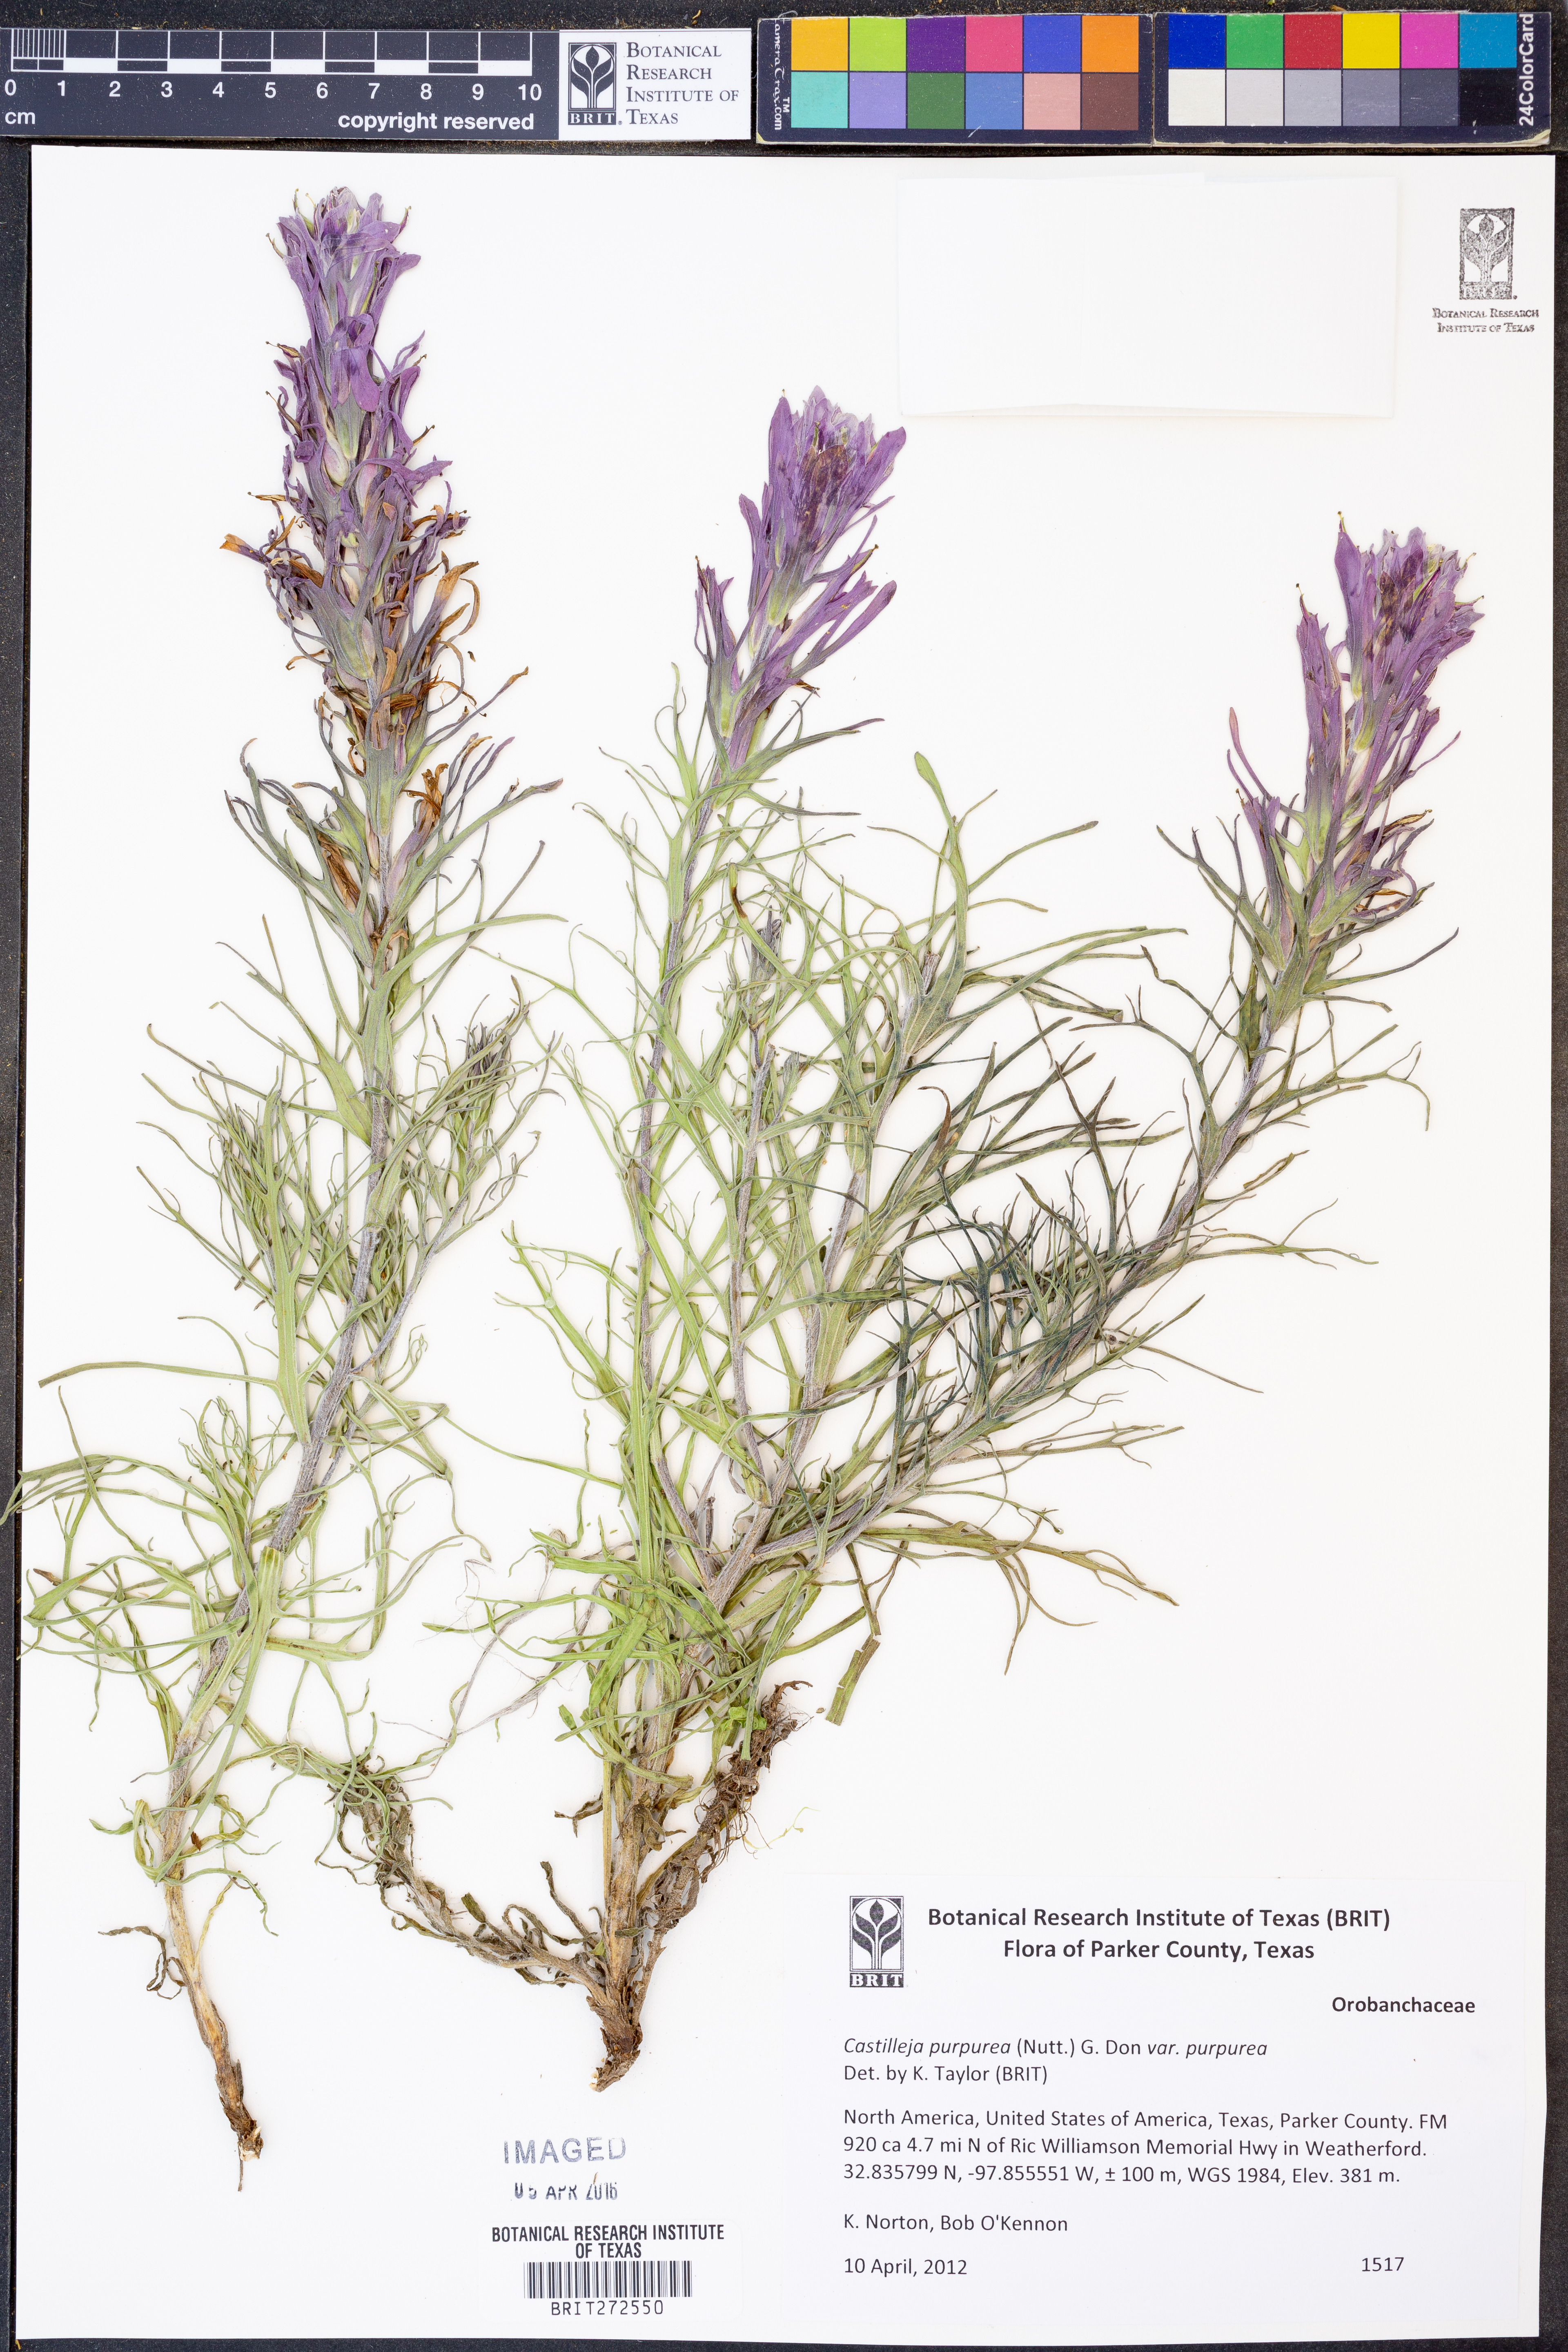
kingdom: Plantae
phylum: Tracheophyta
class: Magnoliopsida
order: Lamiales
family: Orobanchaceae
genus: Castilleja
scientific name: Castilleja purpurea
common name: Plains paintbrush
